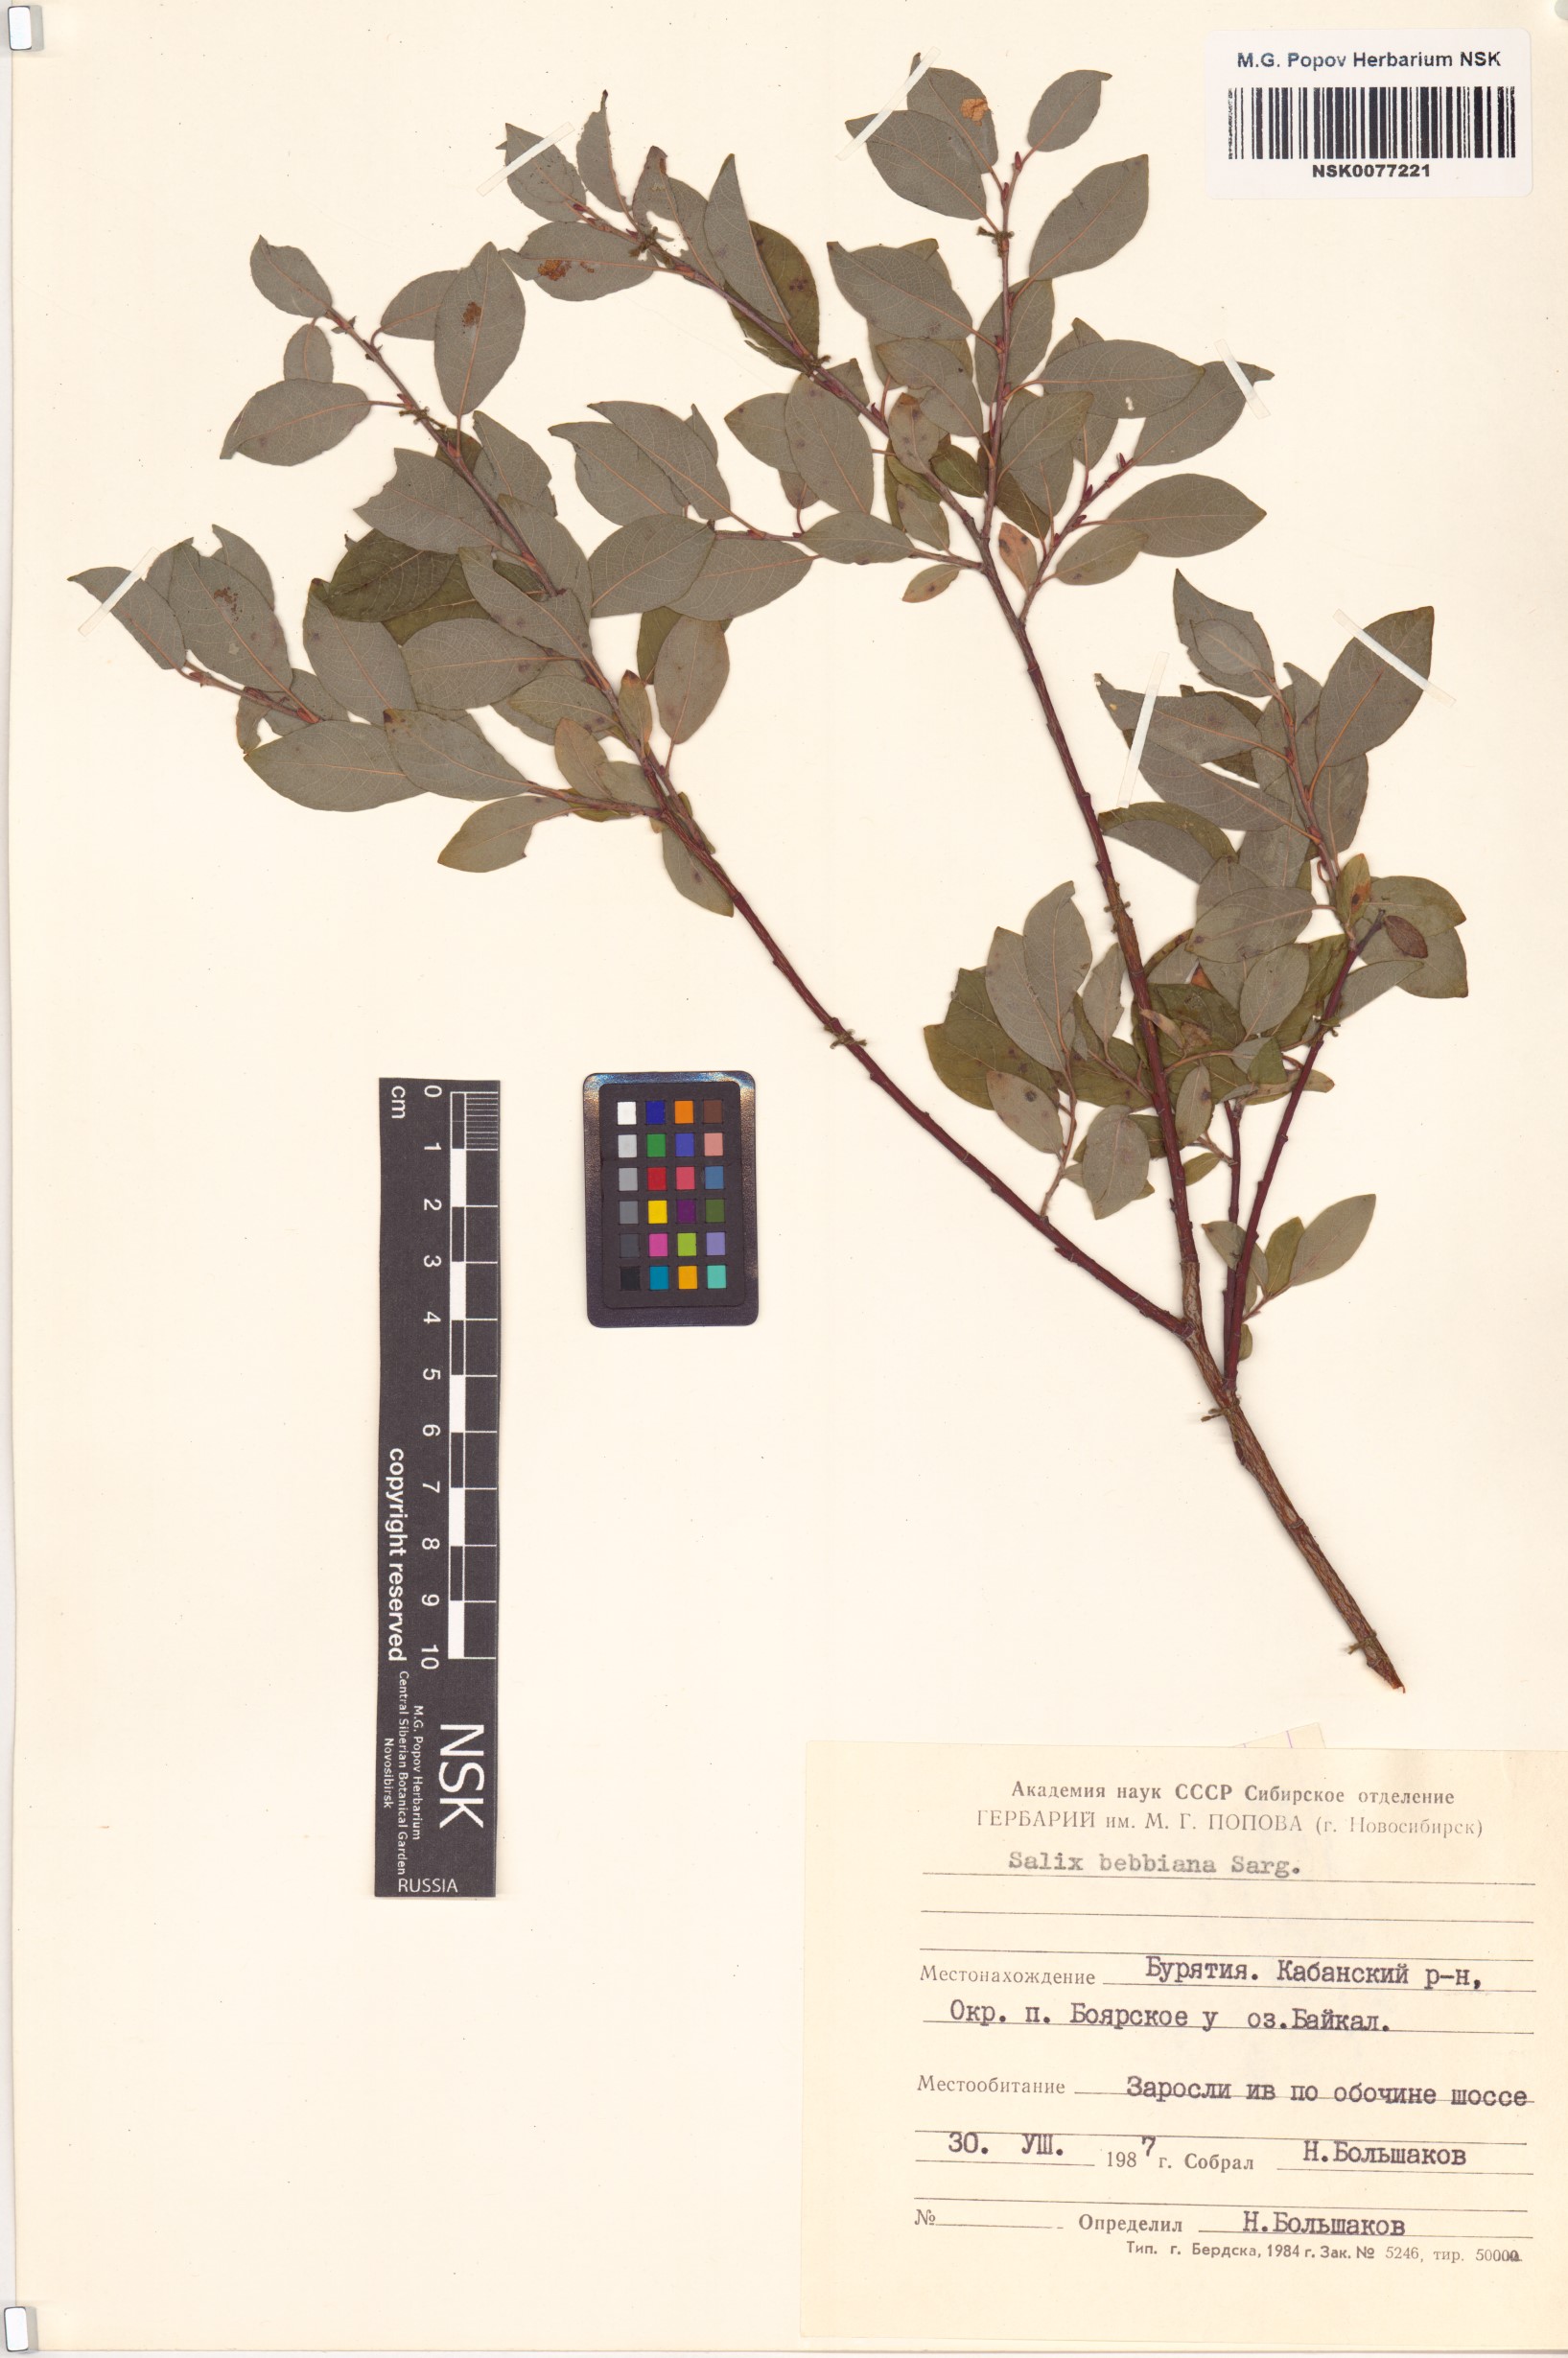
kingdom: Plantae
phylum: Tracheophyta
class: Magnoliopsida
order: Malpighiales
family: Salicaceae
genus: Salix
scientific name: Salix bebbiana
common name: Bebb's willow
